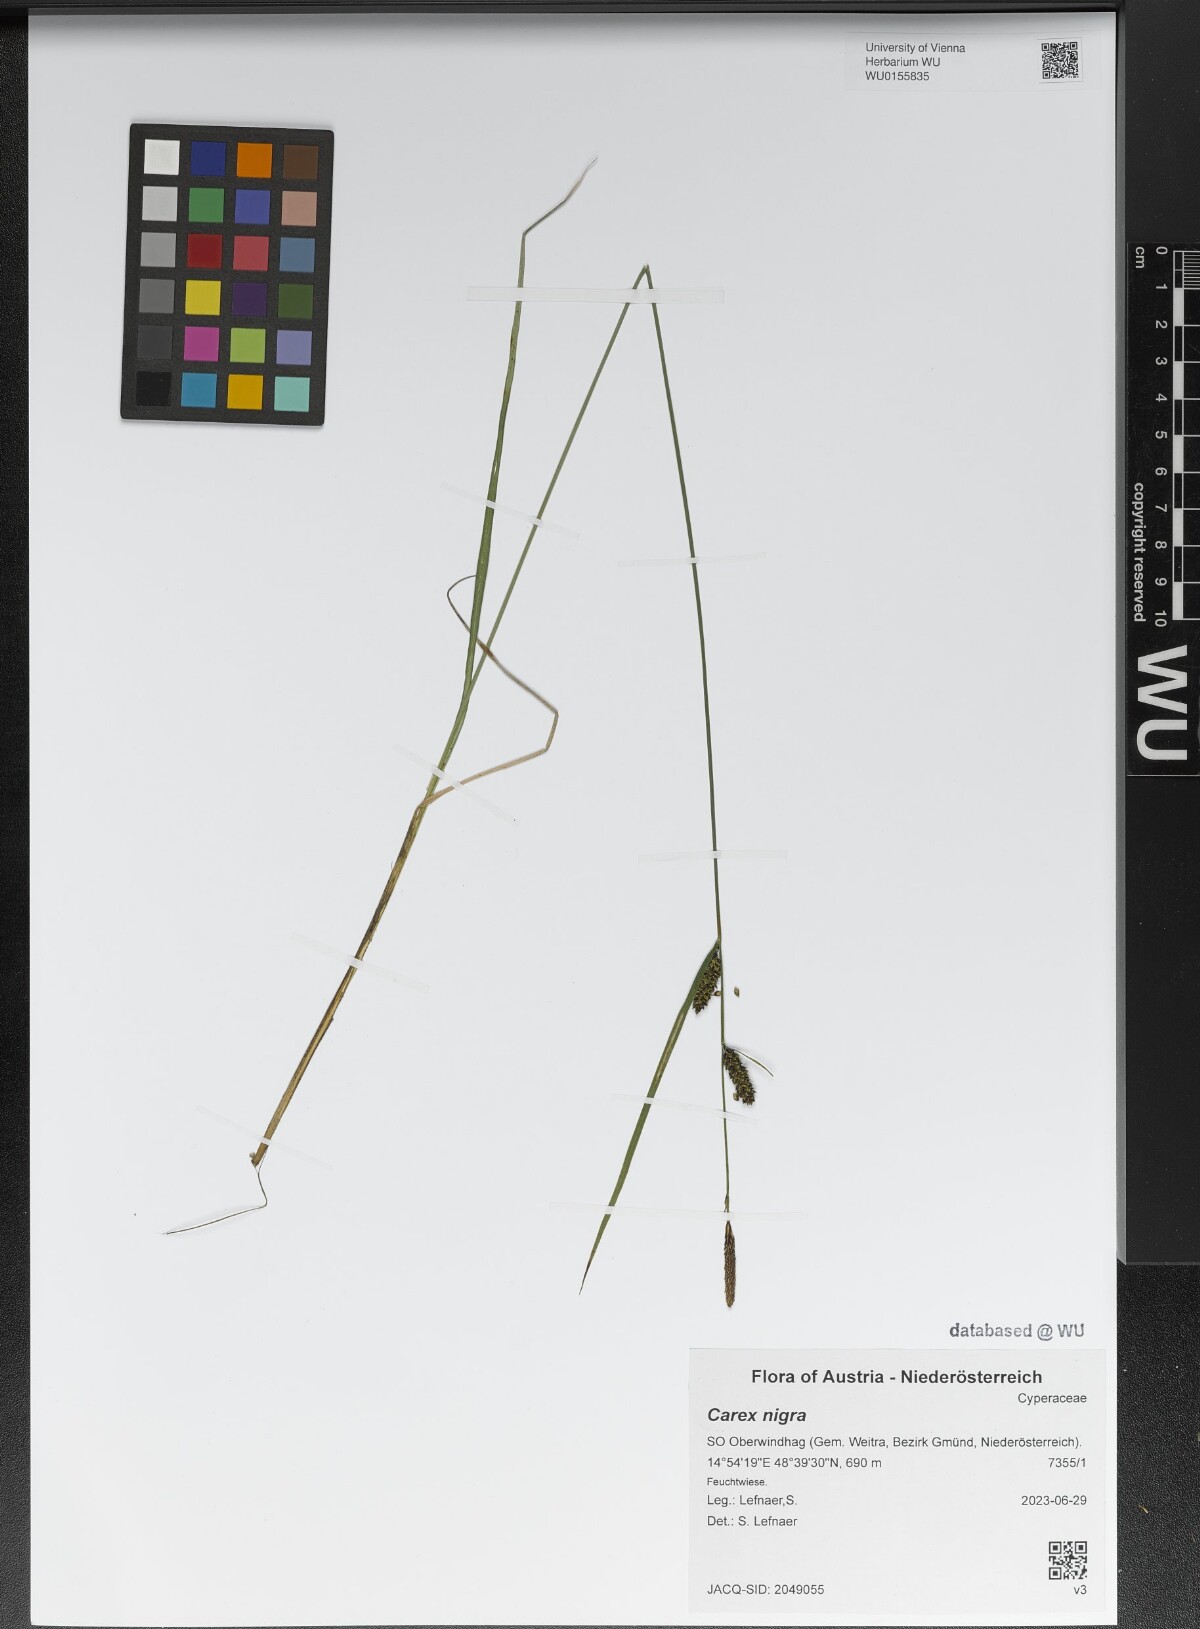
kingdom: Plantae
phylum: Tracheophyta
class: Liliopsida
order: Poales
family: Cyperaceae
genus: Carex
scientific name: Carex nigra
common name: Common sedge
